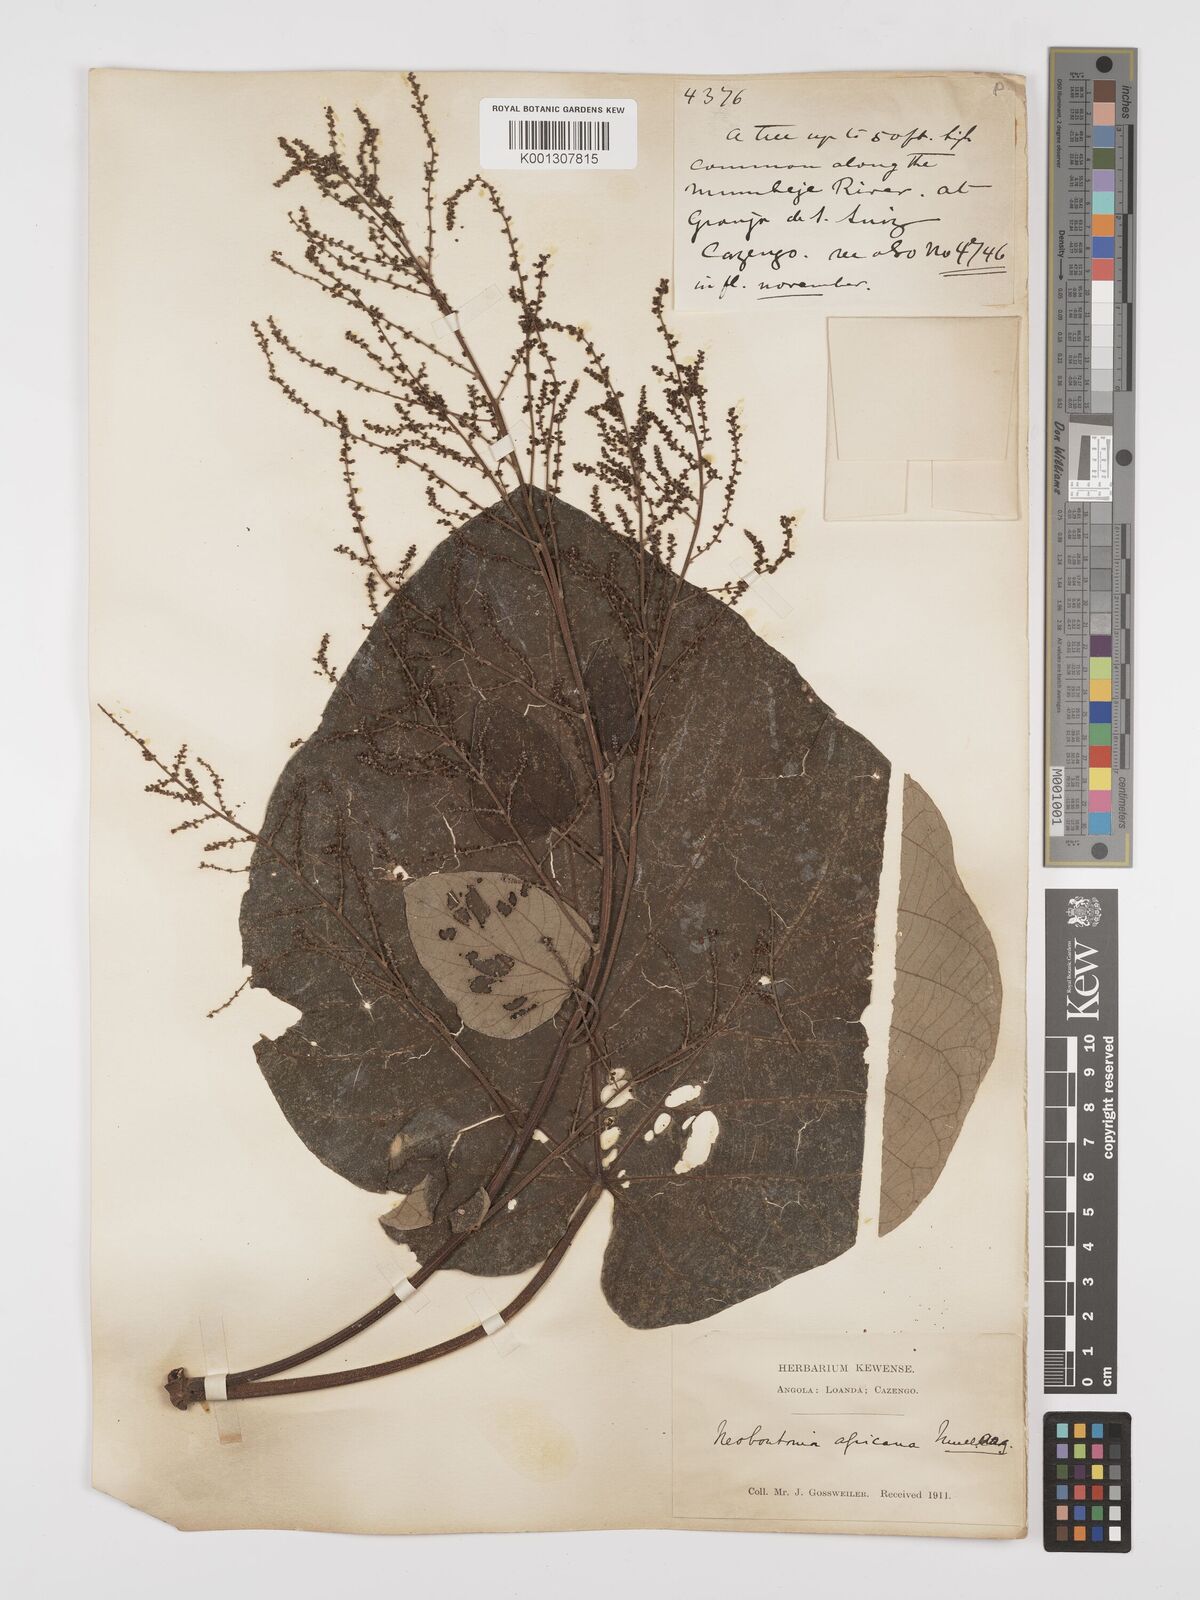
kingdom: Plantae
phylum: Tracheophyta
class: Magnoliopsida
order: Malpighiales
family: Euphorbiaceae
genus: Neoboutonia
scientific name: Neoboutonia
